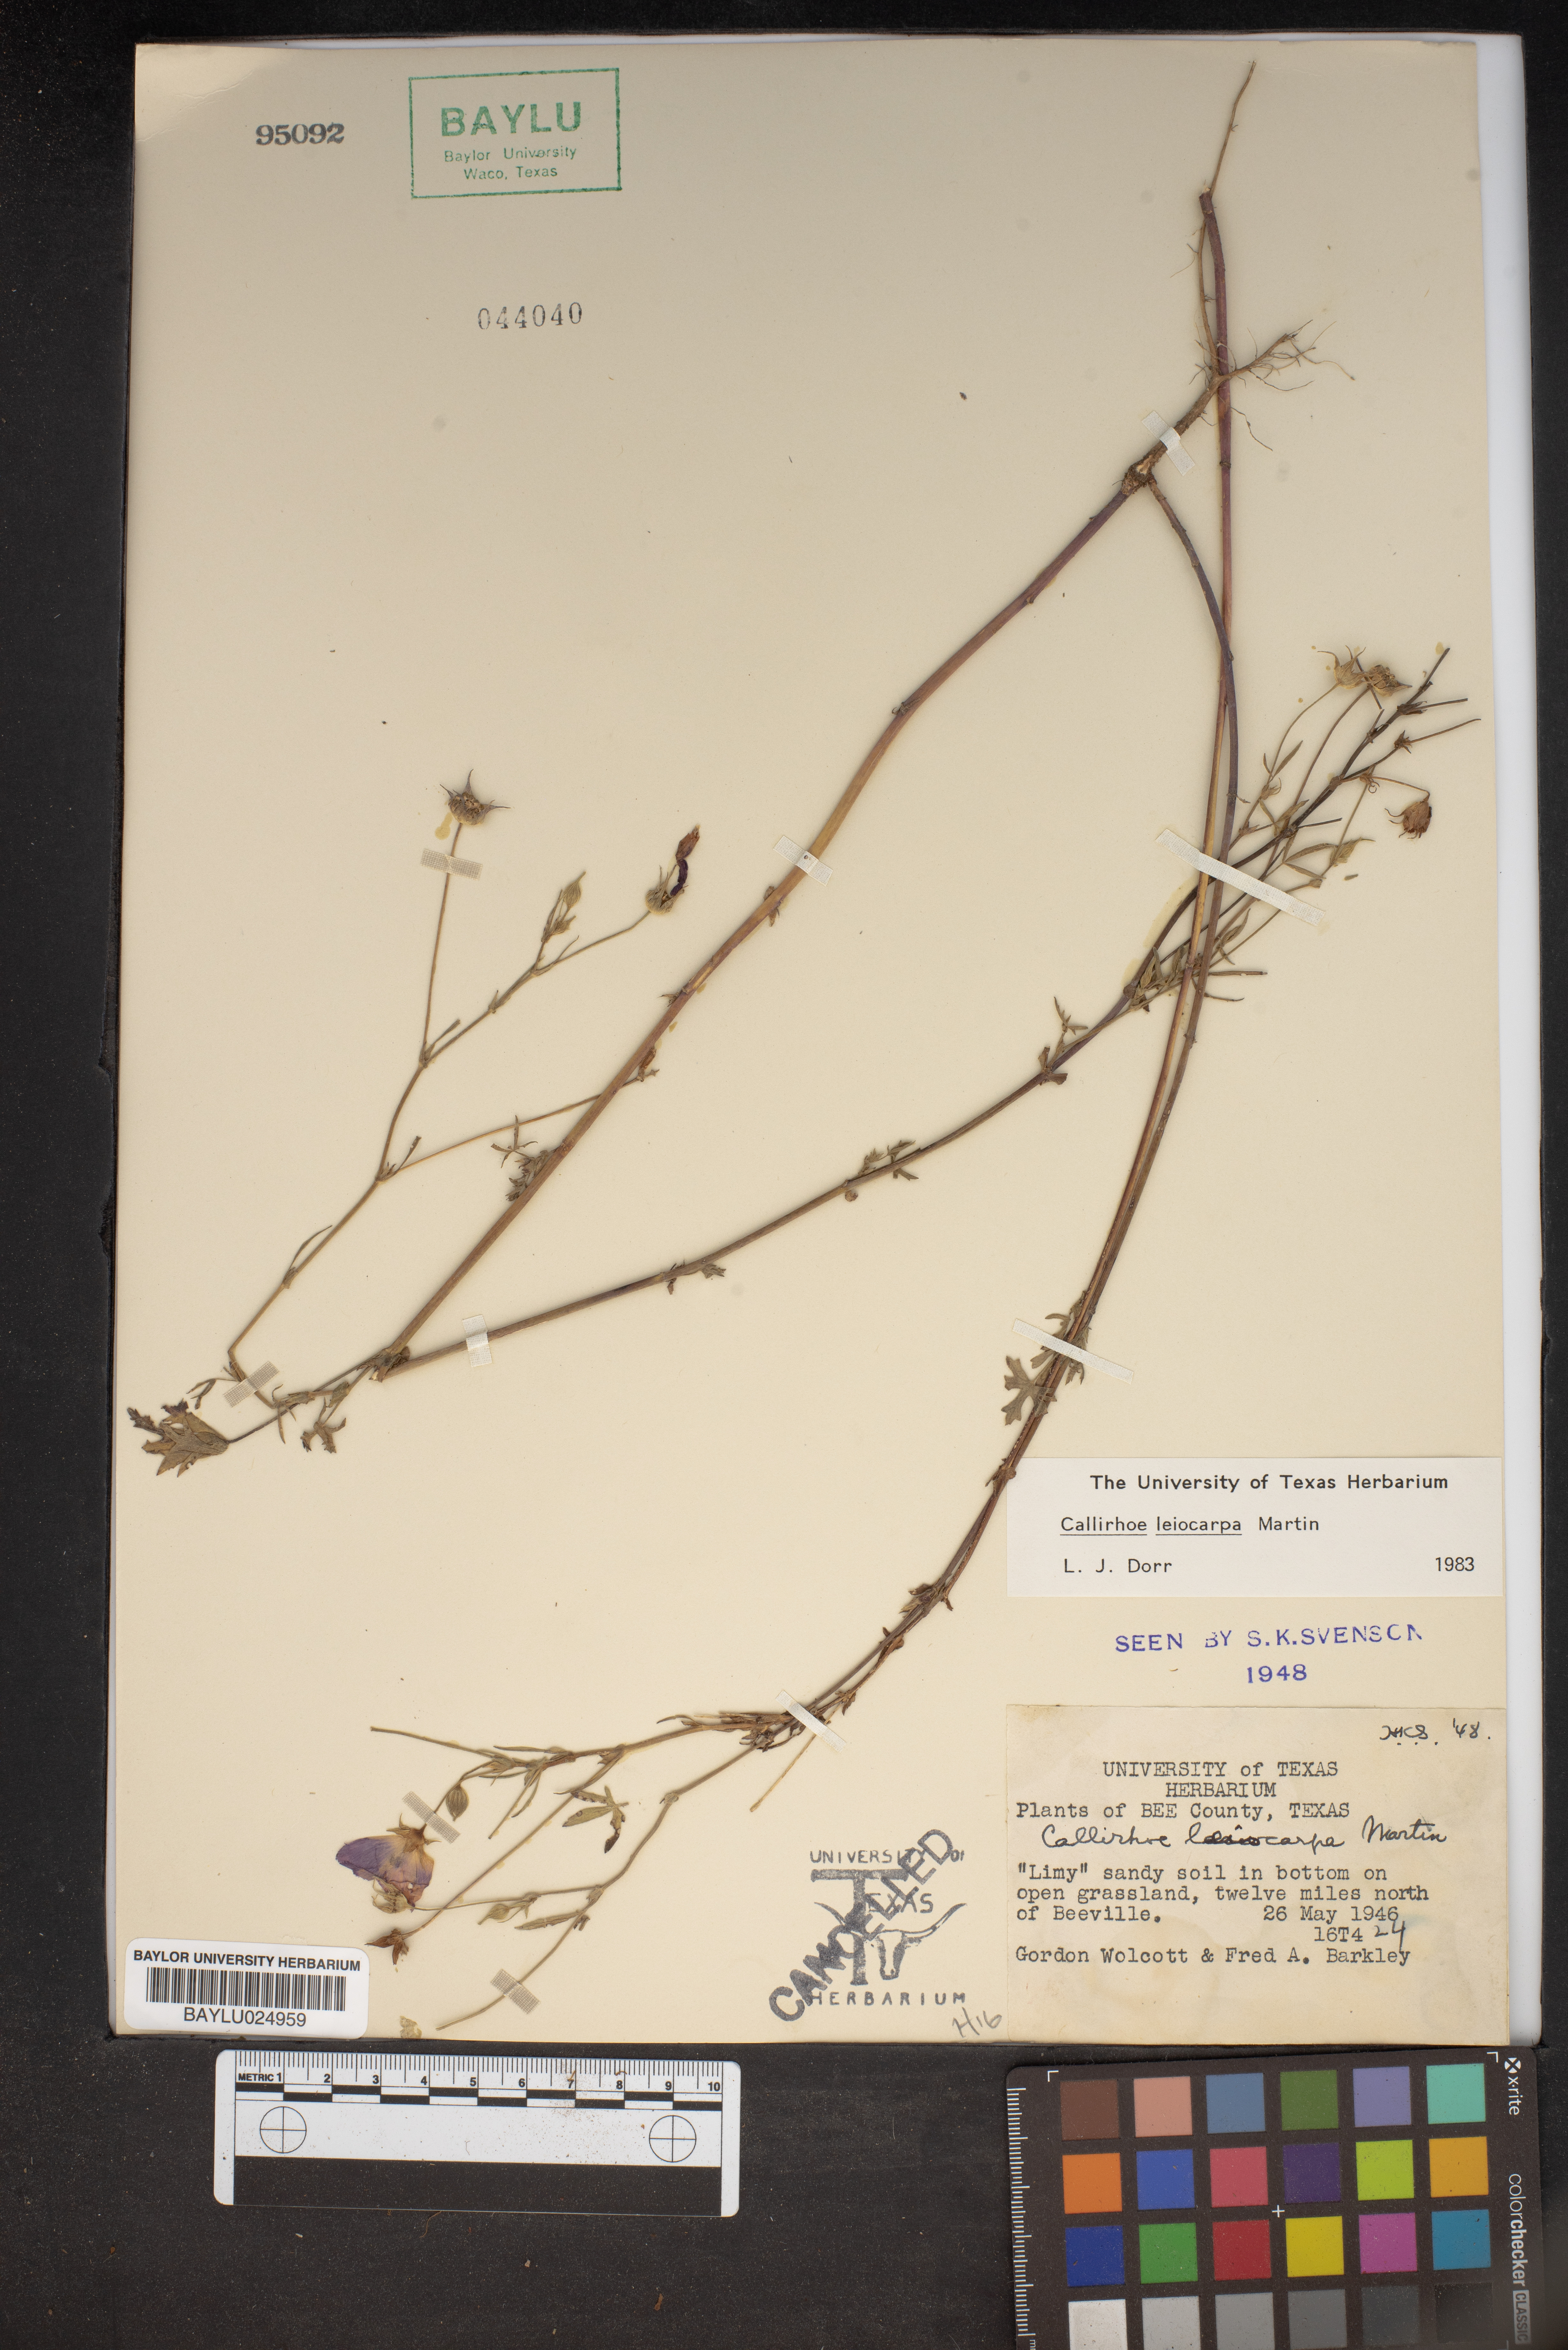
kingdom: Plantae
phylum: Tracheophyta
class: Magnoliopsida
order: Malvales
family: Malvaceae
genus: Callirhoe
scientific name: Callirhoe leiocarpa
